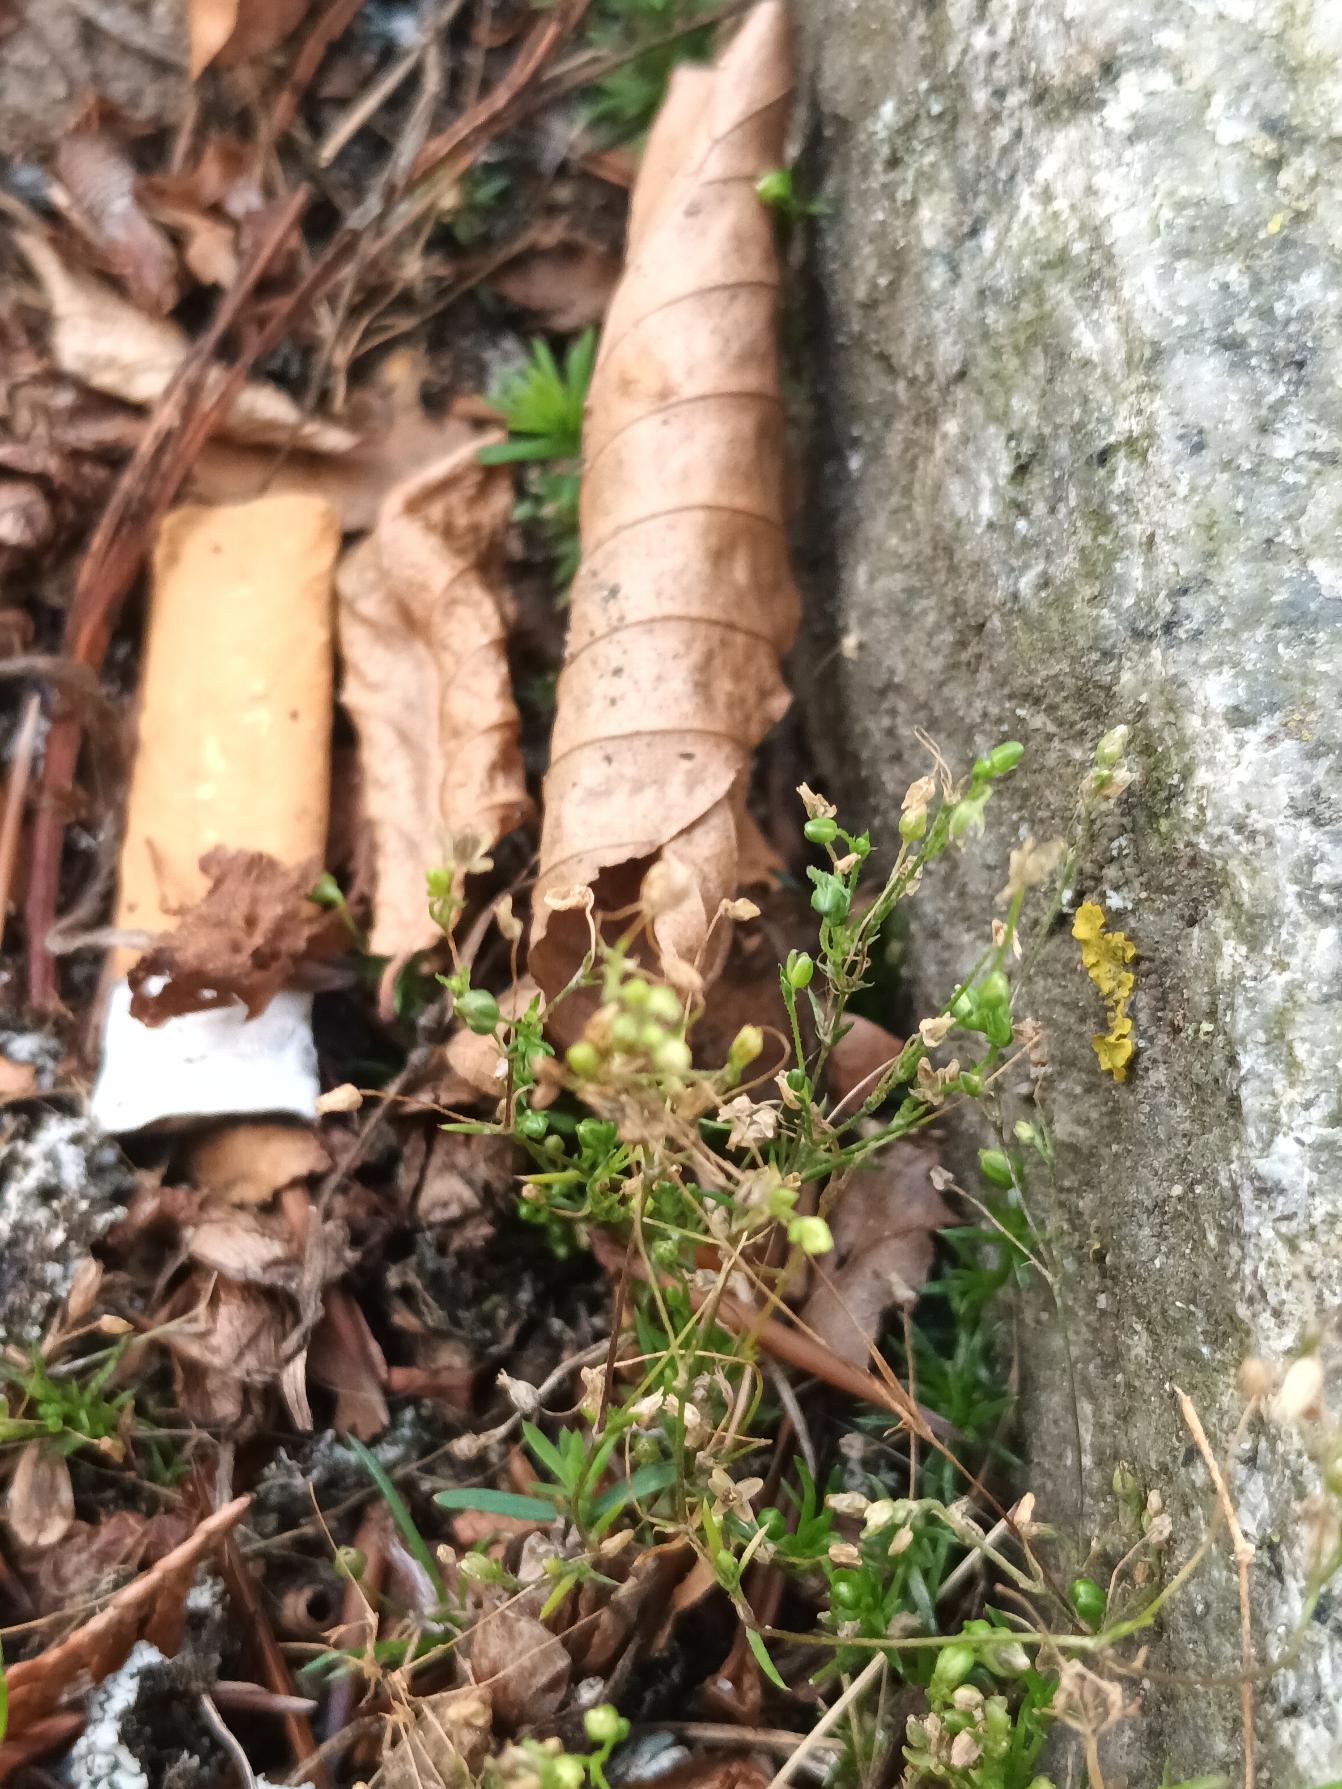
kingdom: Plantae
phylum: Tracheophyta
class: Magnoliopsida
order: Caryophyllales
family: Caryophyllaceae
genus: Sagina
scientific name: Sagina apetala
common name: Kronløs firling
